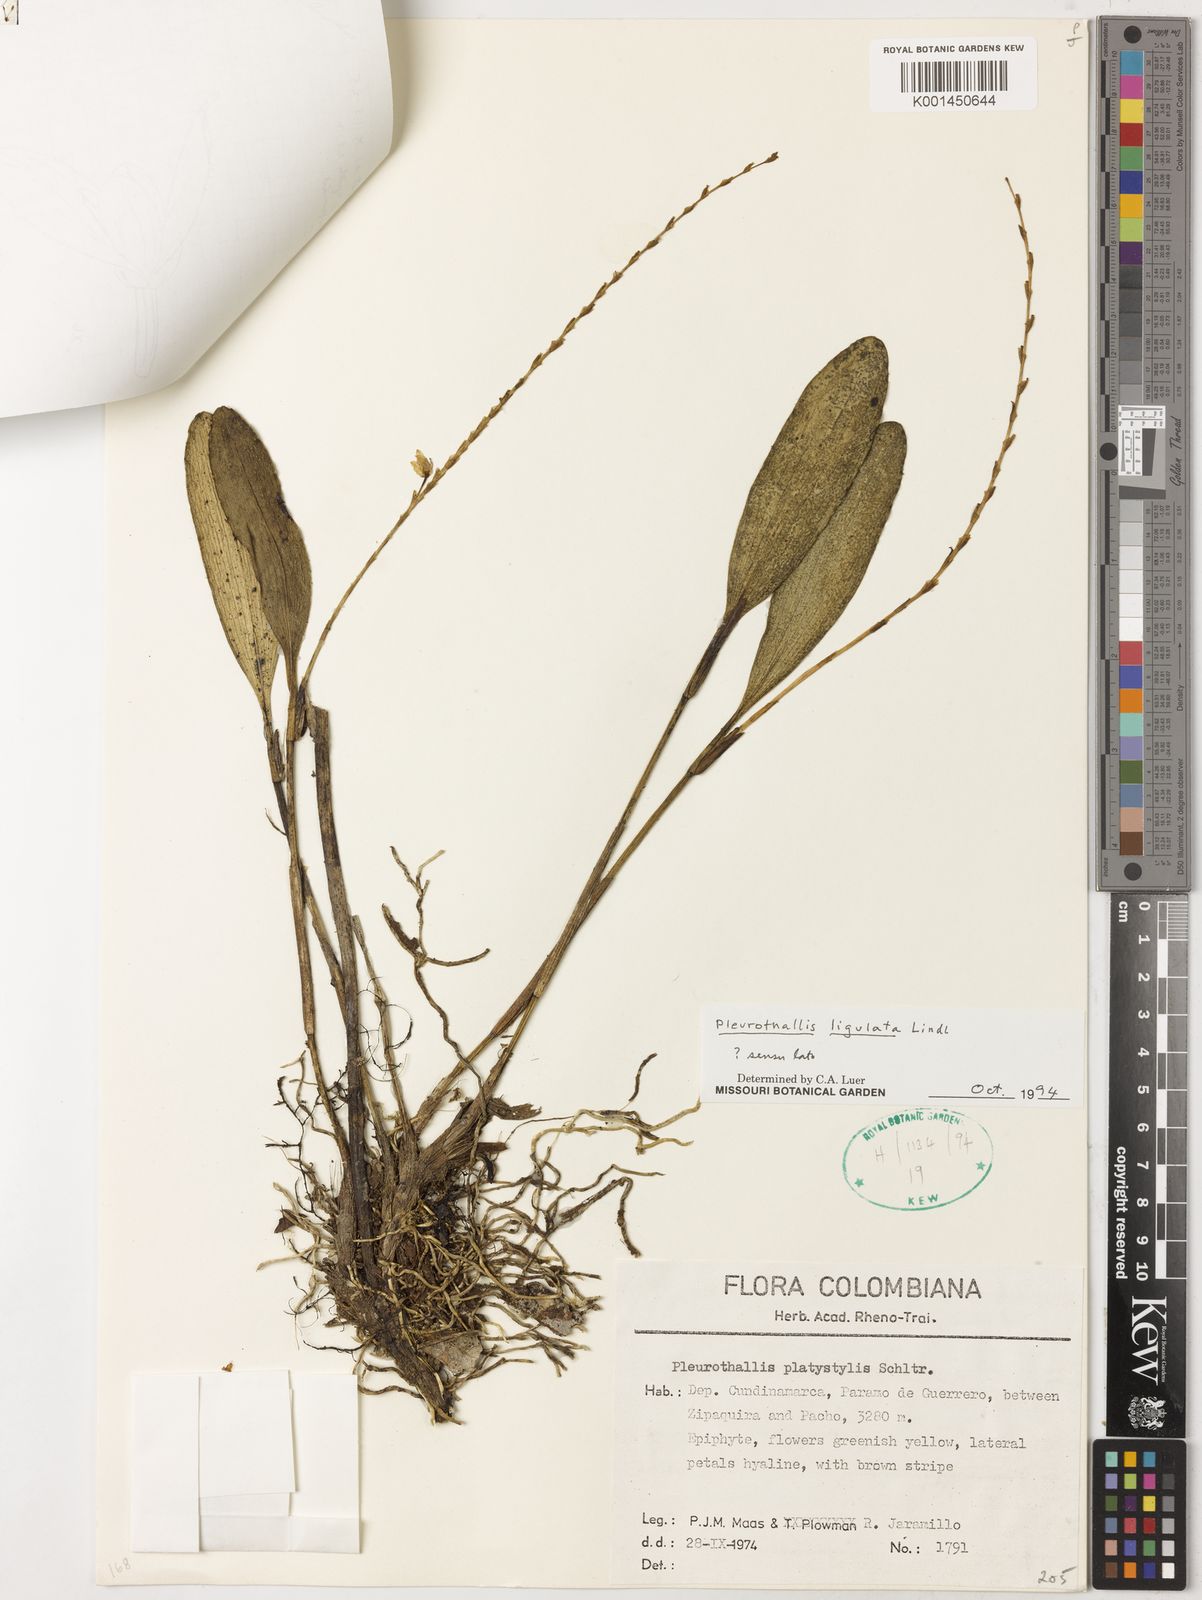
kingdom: Plantae
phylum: Tracheophyta
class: Liliopsida
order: Asparagales
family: Orchidaceae
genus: Stelis
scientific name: Stelis ligulata
